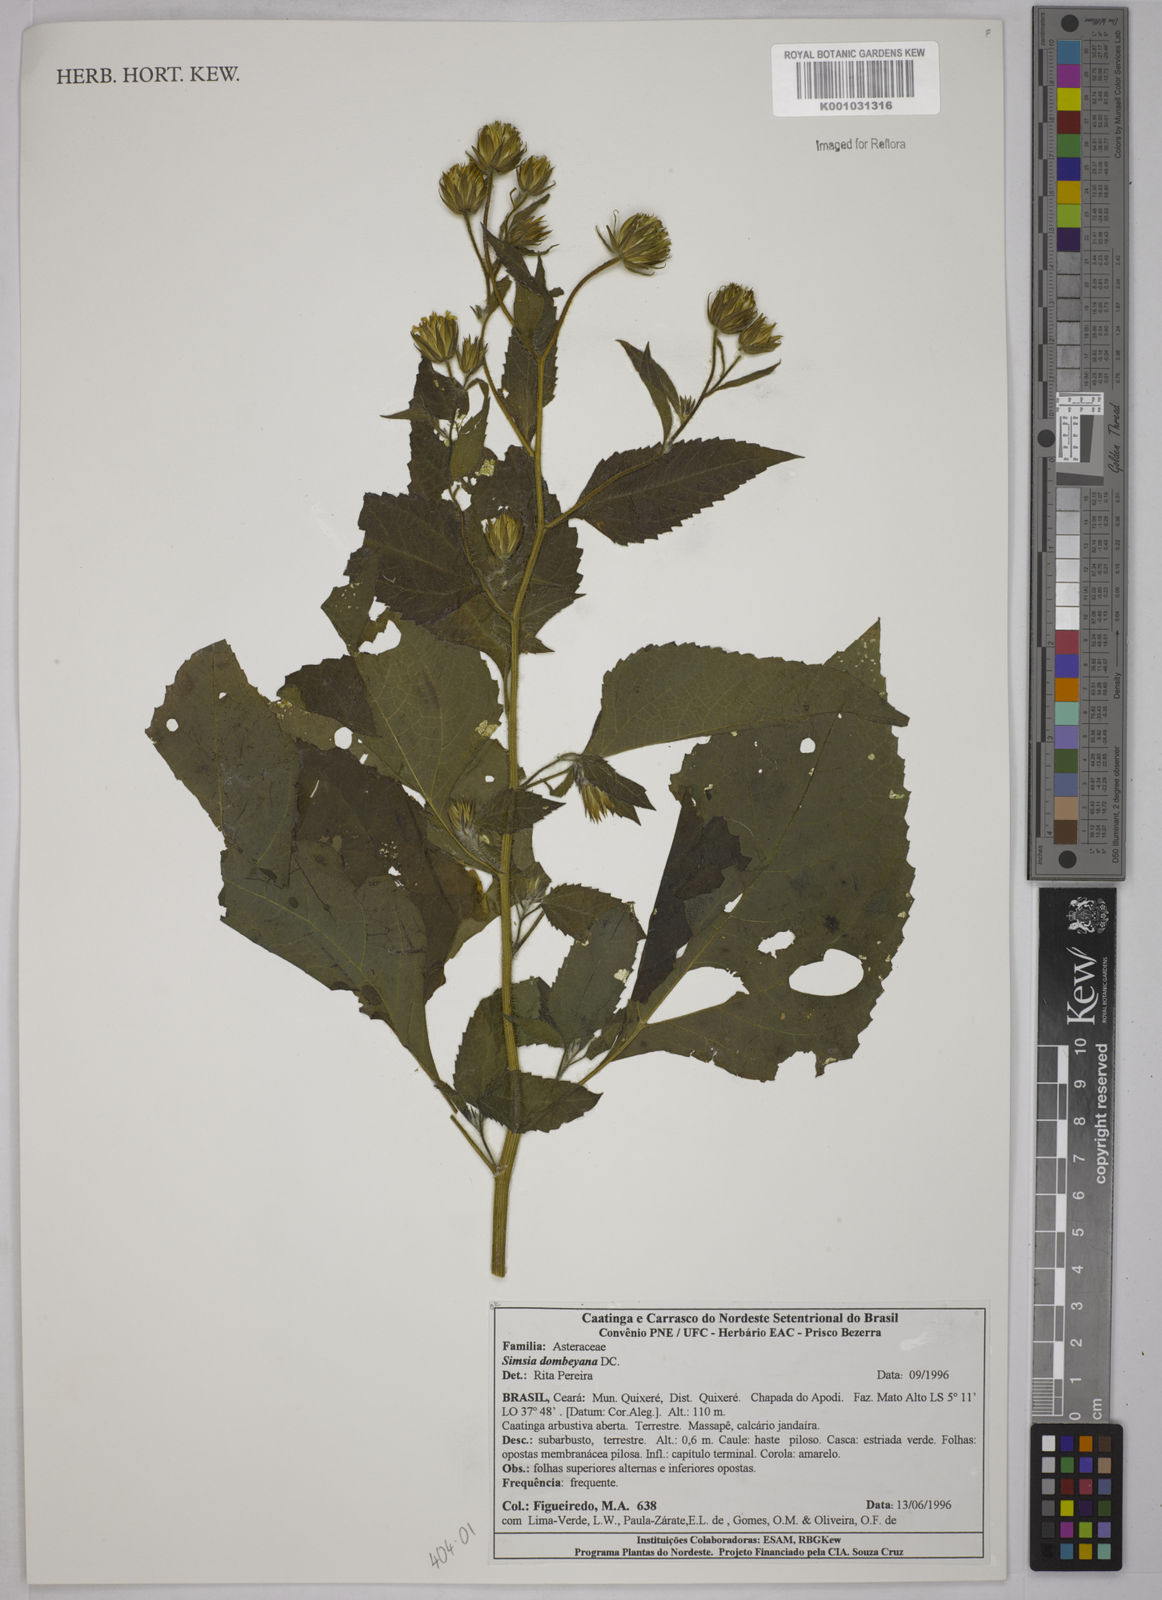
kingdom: Plantae
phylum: Tracheophyta
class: Magnoliopsida
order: Asterales
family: Asteraceae
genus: Simsia
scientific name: Simsia dombeyana
